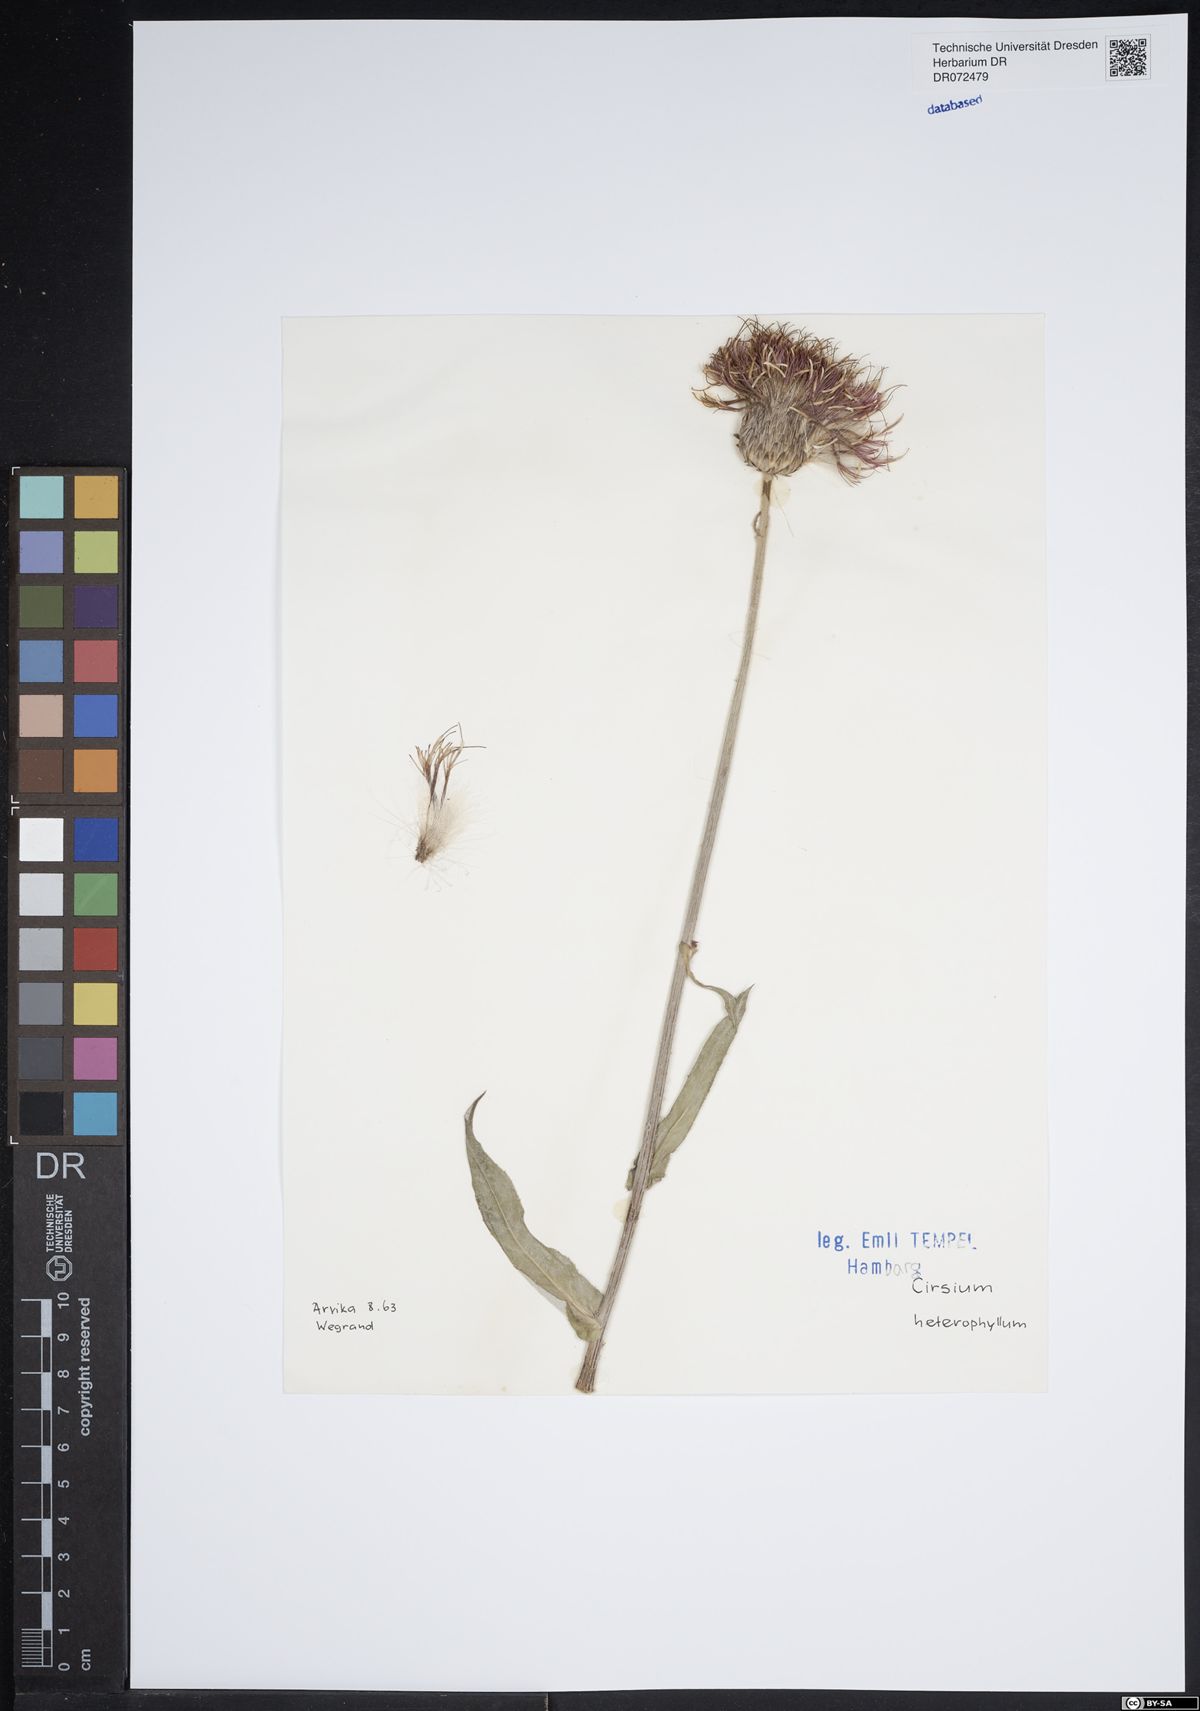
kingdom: Plantae
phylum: Tracheophyta
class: Magnoliopsida
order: Asterales
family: Asteraceae
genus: Cirsium
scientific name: Cirsium heterophyllum
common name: Melancholy thistle
